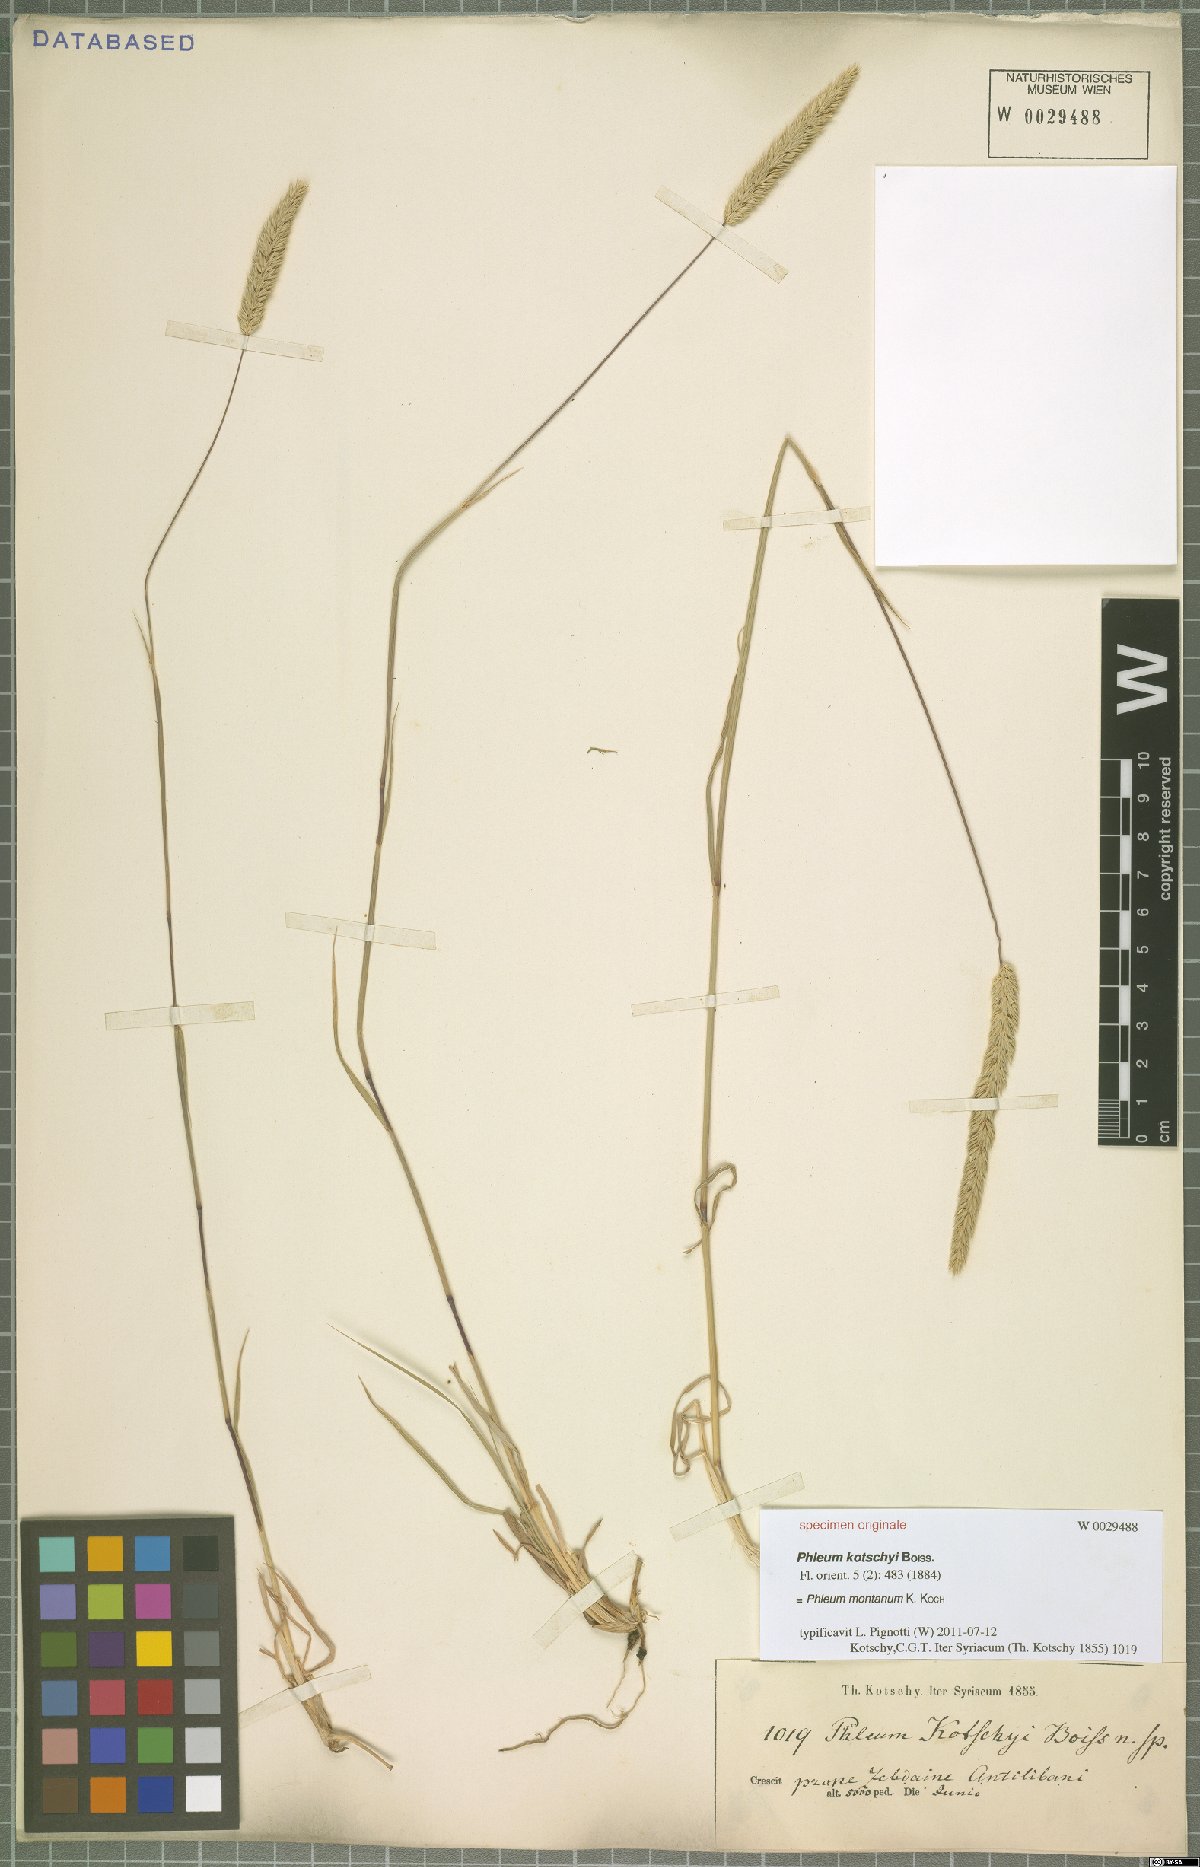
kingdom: Plantae
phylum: Tracheophyta
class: Liliopsida
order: Poales
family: Poaceae
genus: Phleum
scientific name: Phleum montanum
